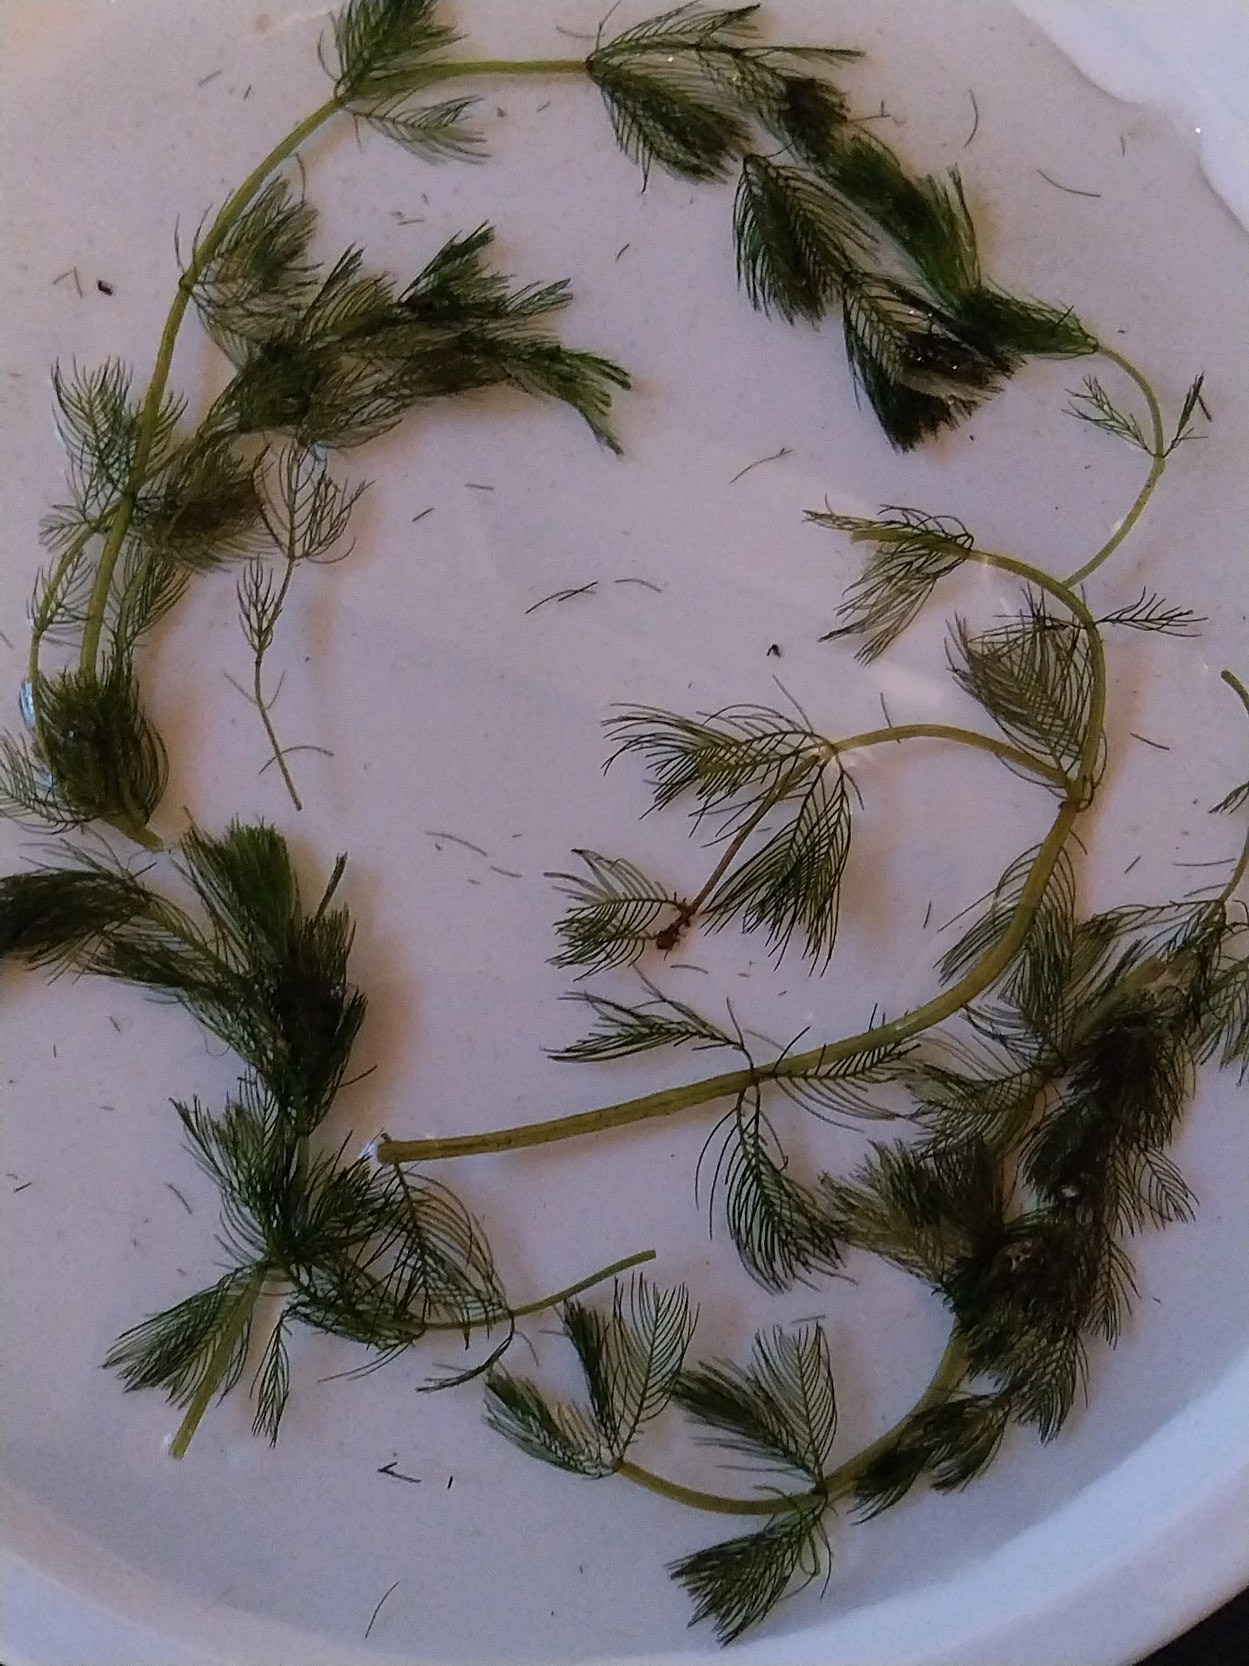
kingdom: Plantae
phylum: Tracheophyta
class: Magnoliopsida
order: Saxifragales
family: Haloragaceae
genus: Myriophyllum
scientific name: Myriophyllum spicatum
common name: Aks-tusindblad
